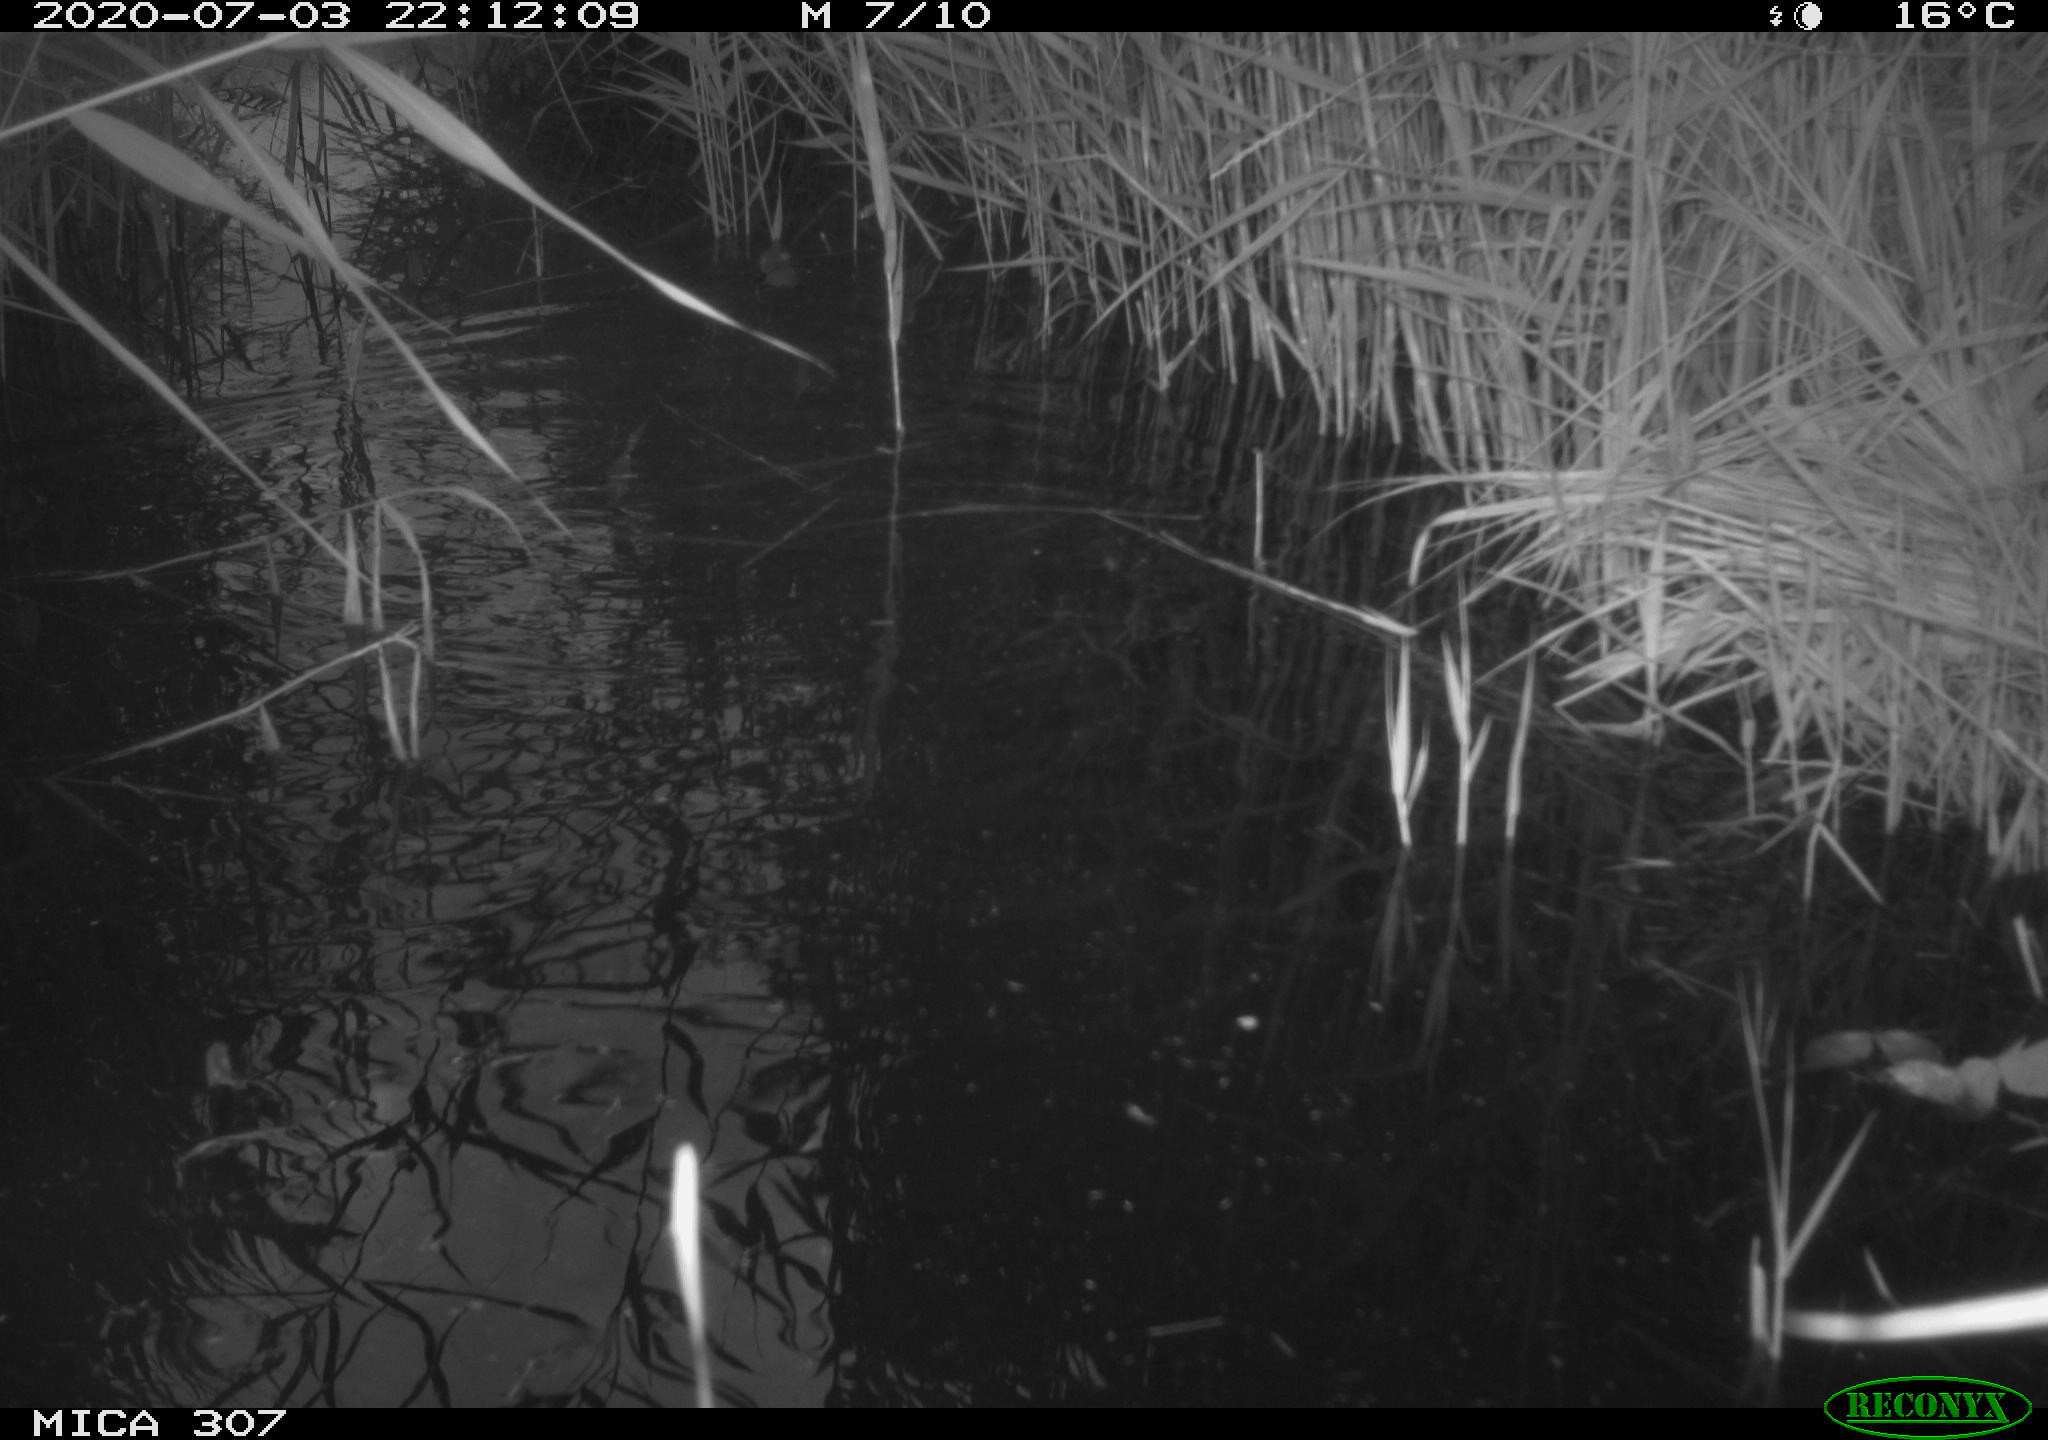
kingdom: Animalia
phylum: Chordata
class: Mammalia
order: Rodentia
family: Muridae
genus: Rattus
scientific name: Rattus norvegicus
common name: Brown rat
